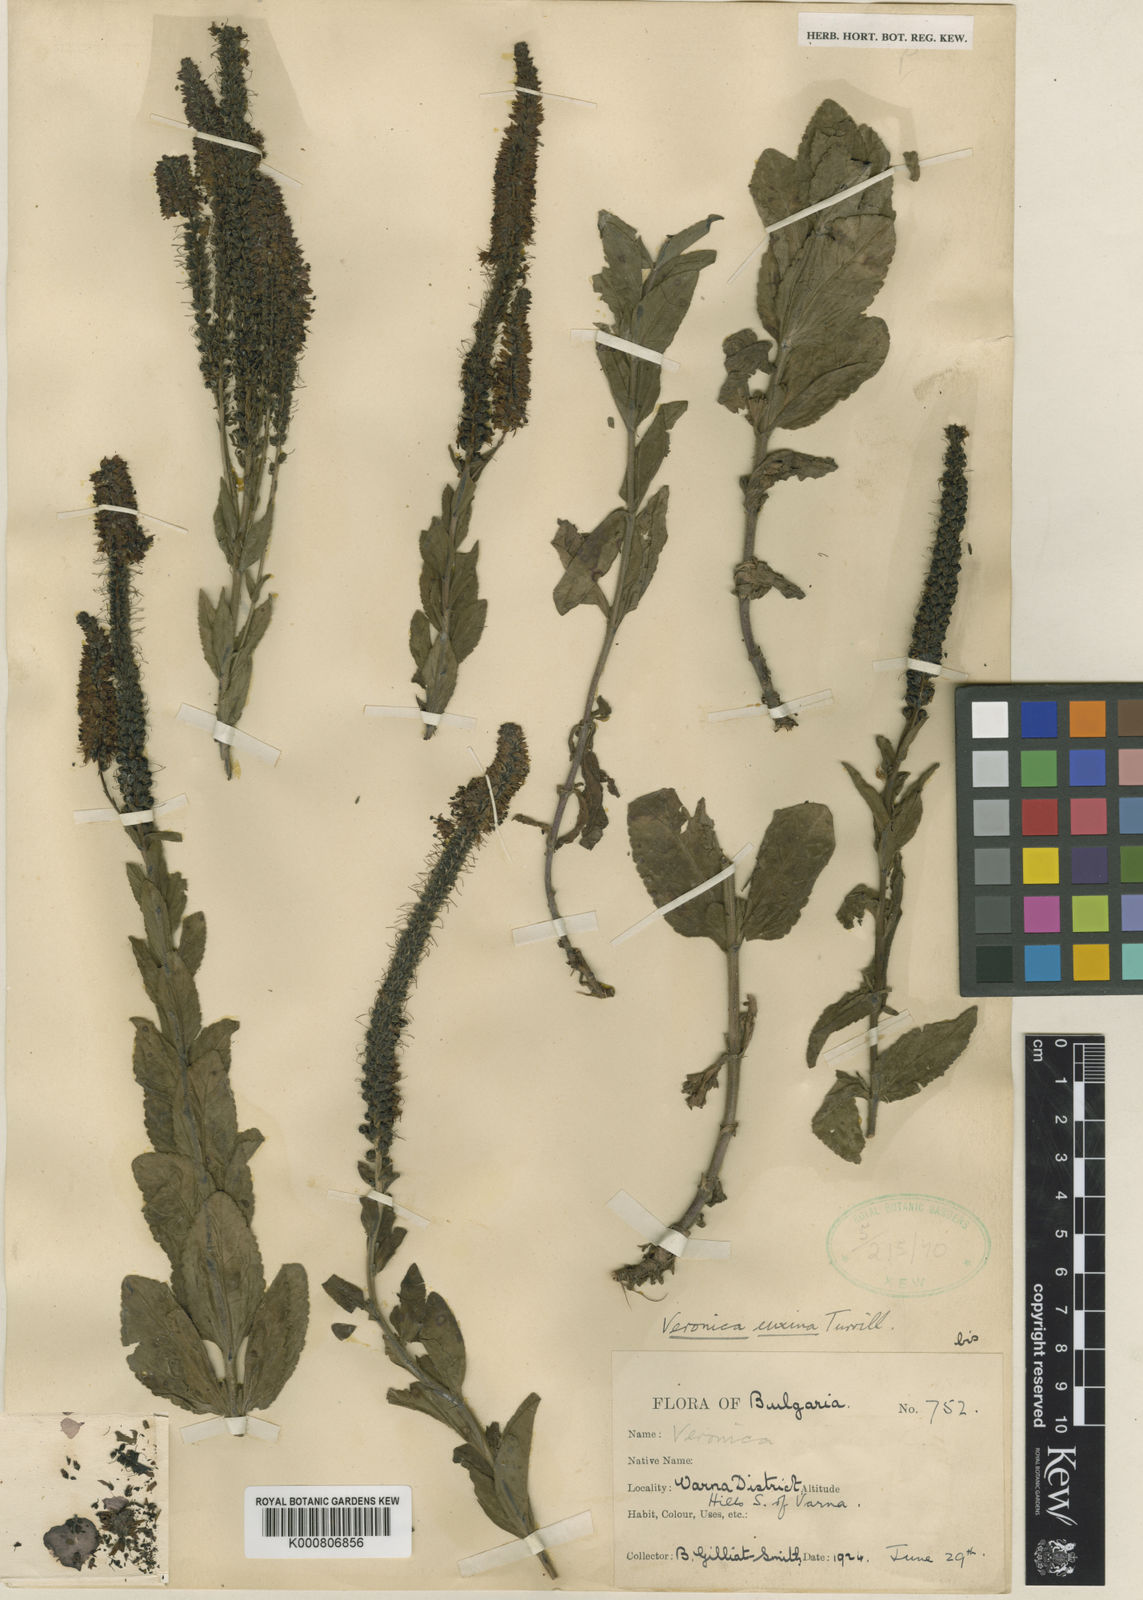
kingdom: Plantae
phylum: Tracheophyta
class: Magnoliopsida
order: Lamiales
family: Plantaginaceae
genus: Veronica
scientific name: Veronica spicata
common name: Spiked speedwell
